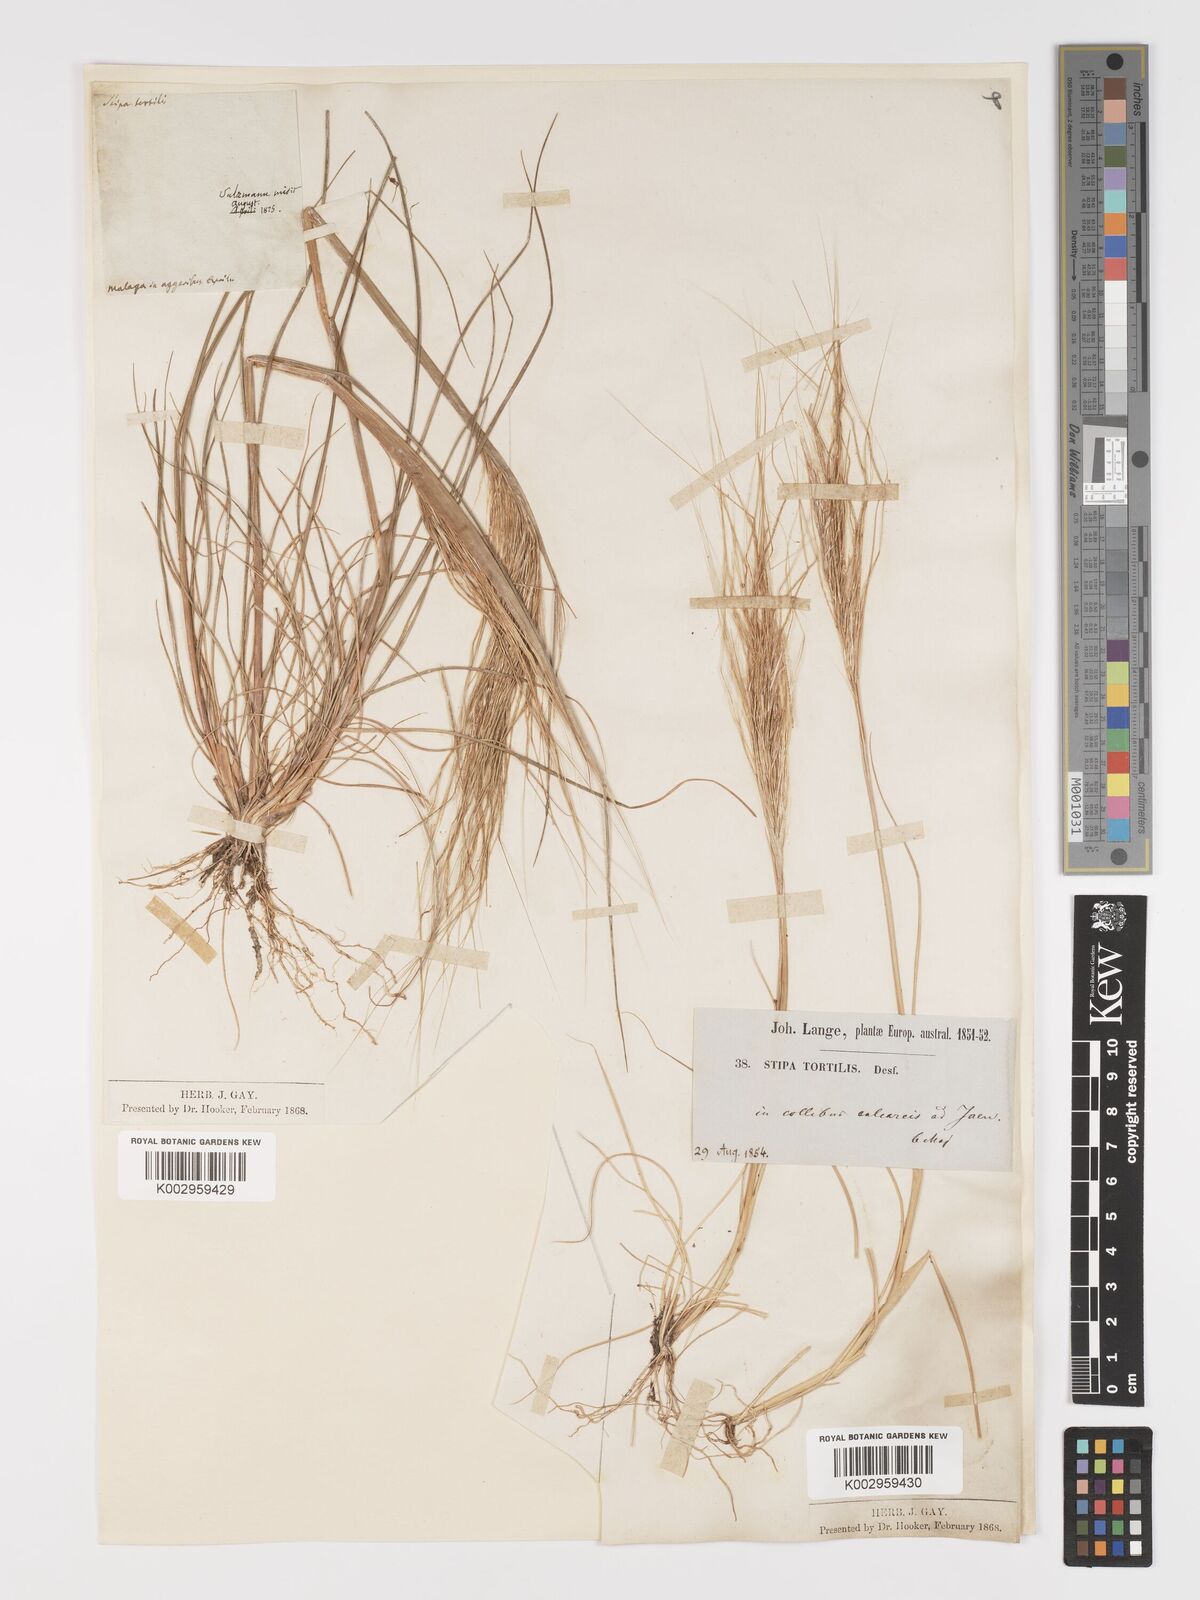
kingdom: Plantae
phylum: Tracheophyta
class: Liliopsida
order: Poales
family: Poaceae
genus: Stipa
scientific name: Stipa
